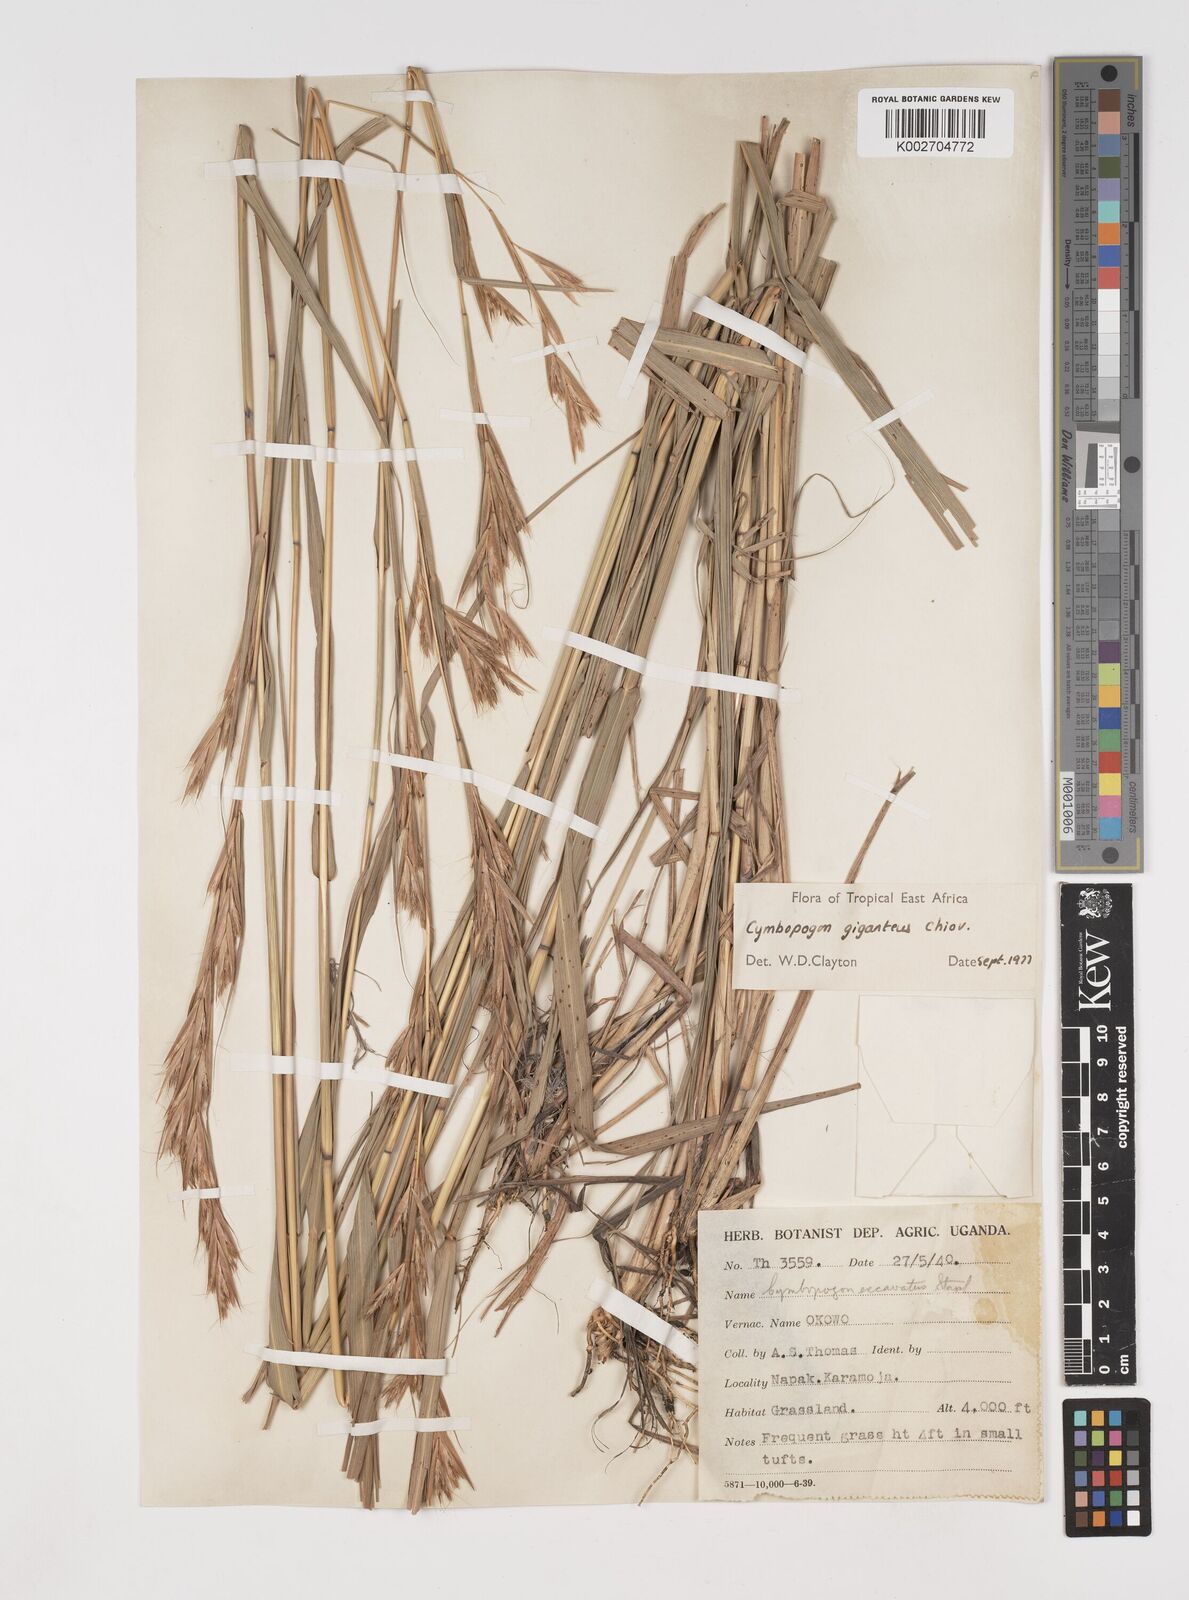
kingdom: Plantae
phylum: Tracheophyta
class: Liliopsida
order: Poales
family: Poaceae
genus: Cymbopogon
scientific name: Cymbopogon giganteus
